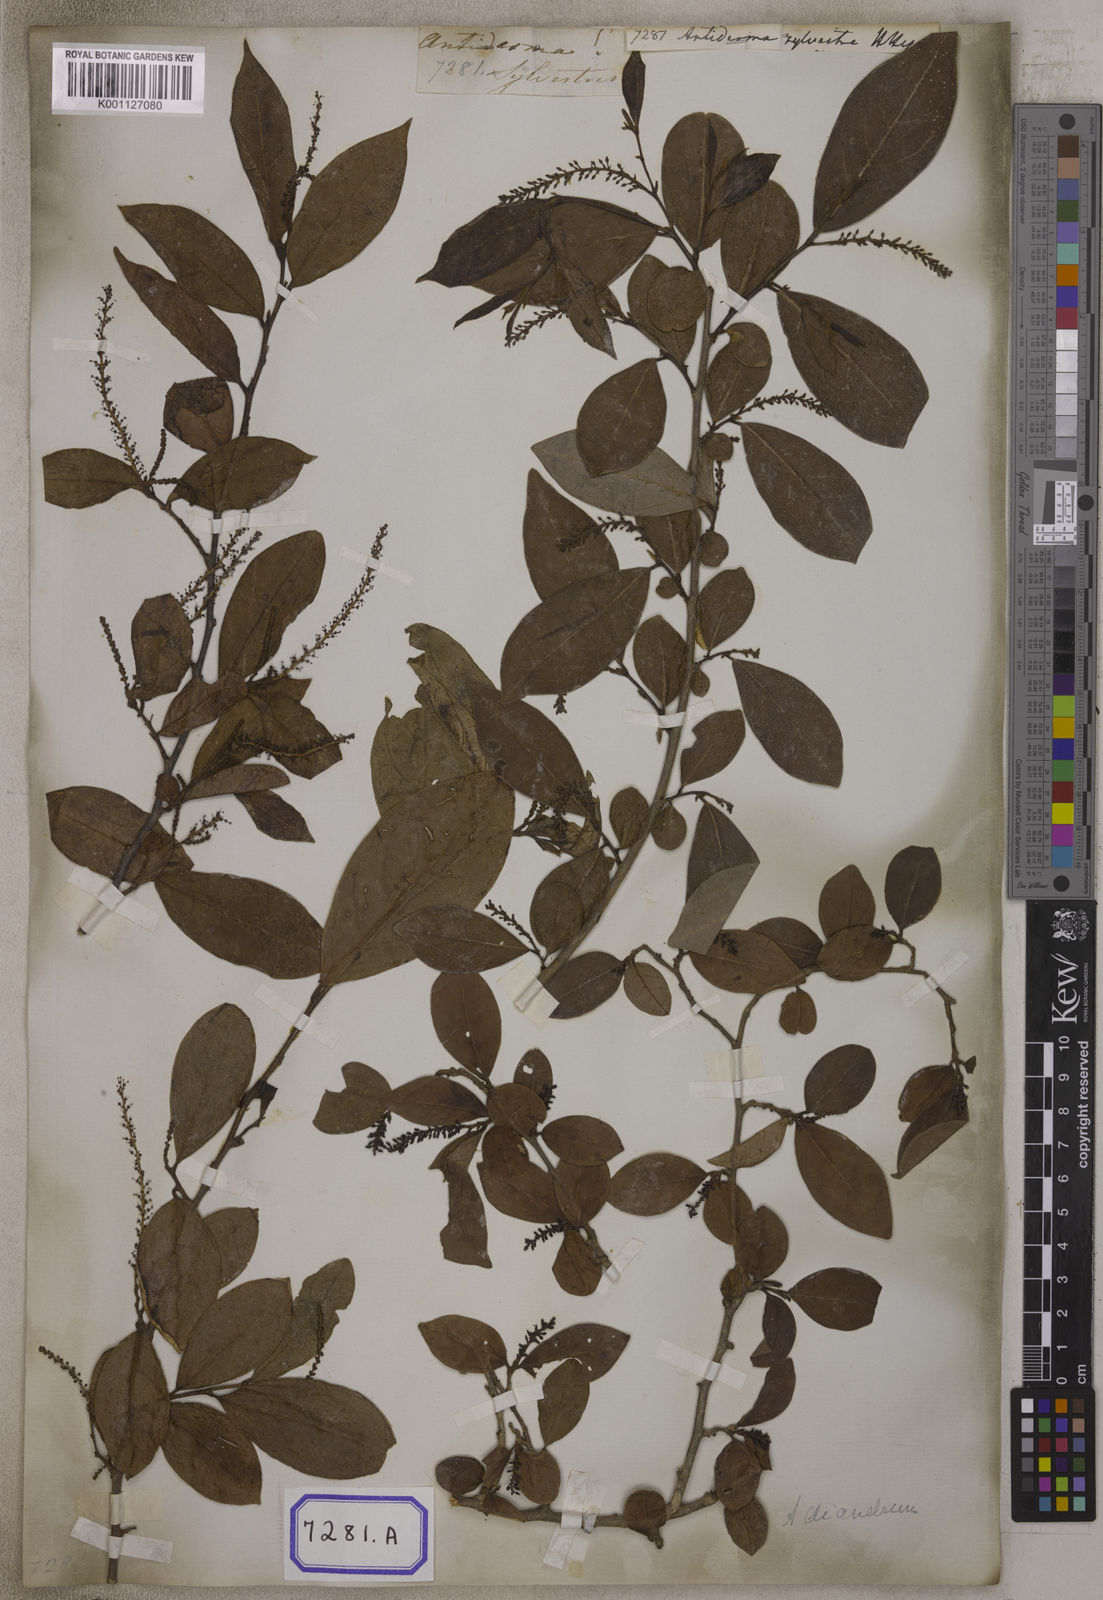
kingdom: Plantae
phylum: Tracheophyta
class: Magnoliopsida
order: Malpighiales
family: Phyllanthaceae
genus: Antidesma
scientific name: Antidesma acidum
